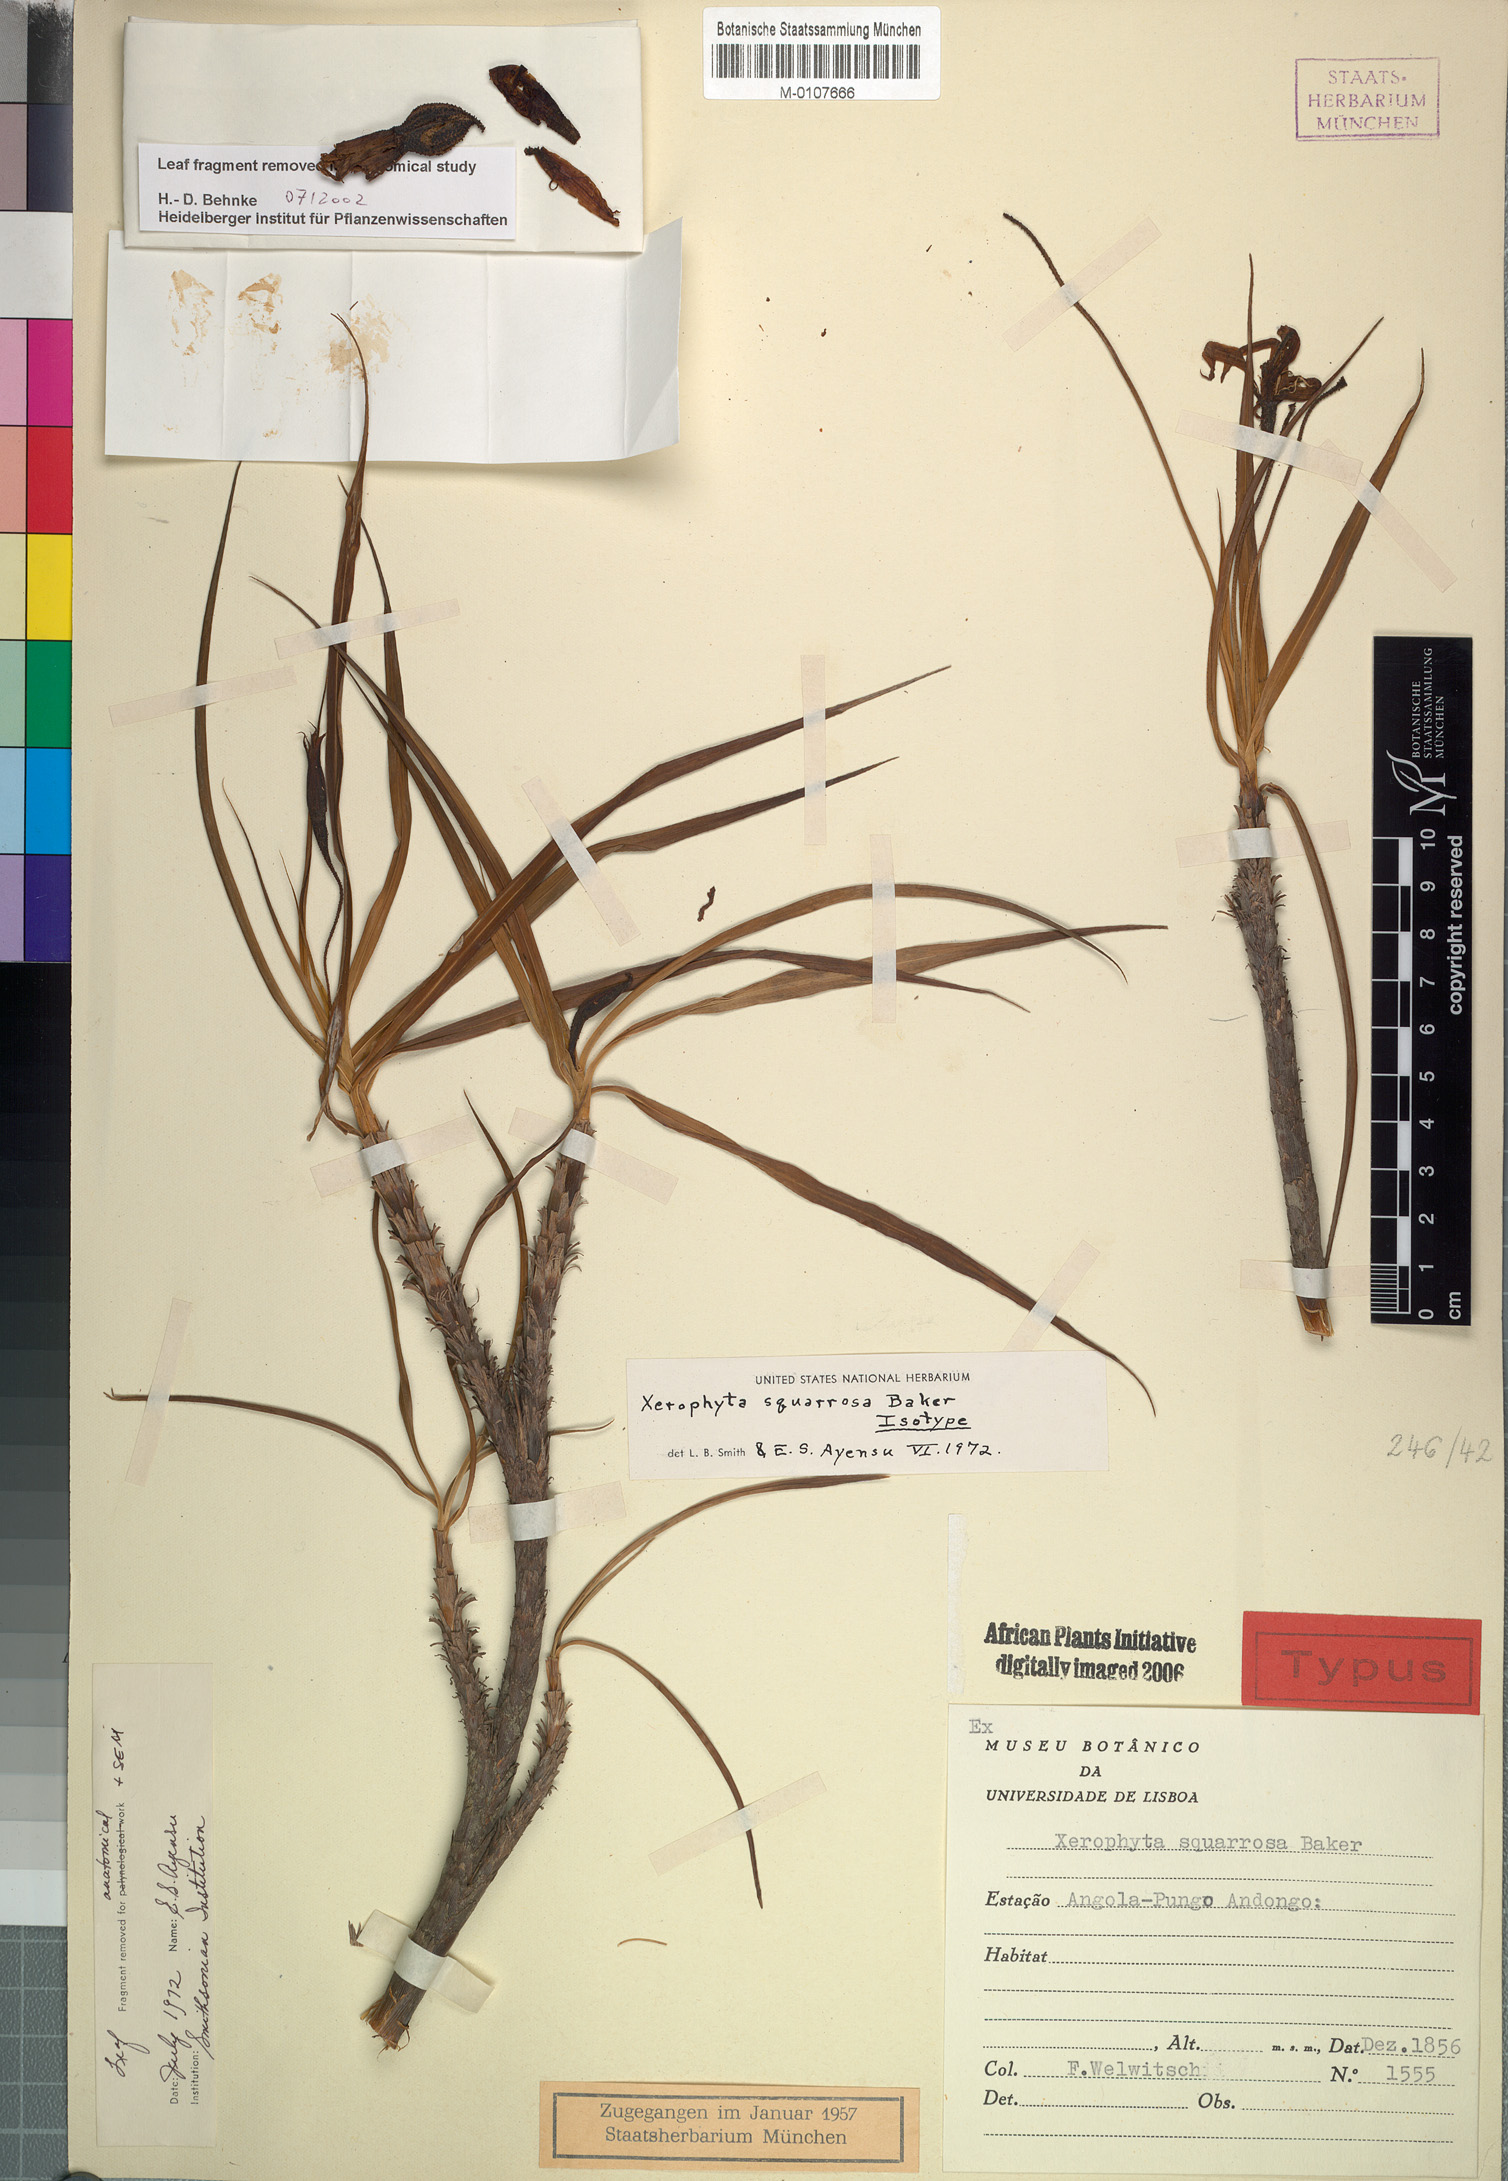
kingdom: Plantae
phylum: Tracheophyta
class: Liliopsida
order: Pandanales
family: Velloziaceae
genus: Xerophyta
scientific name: Xerophyta squarrosa
